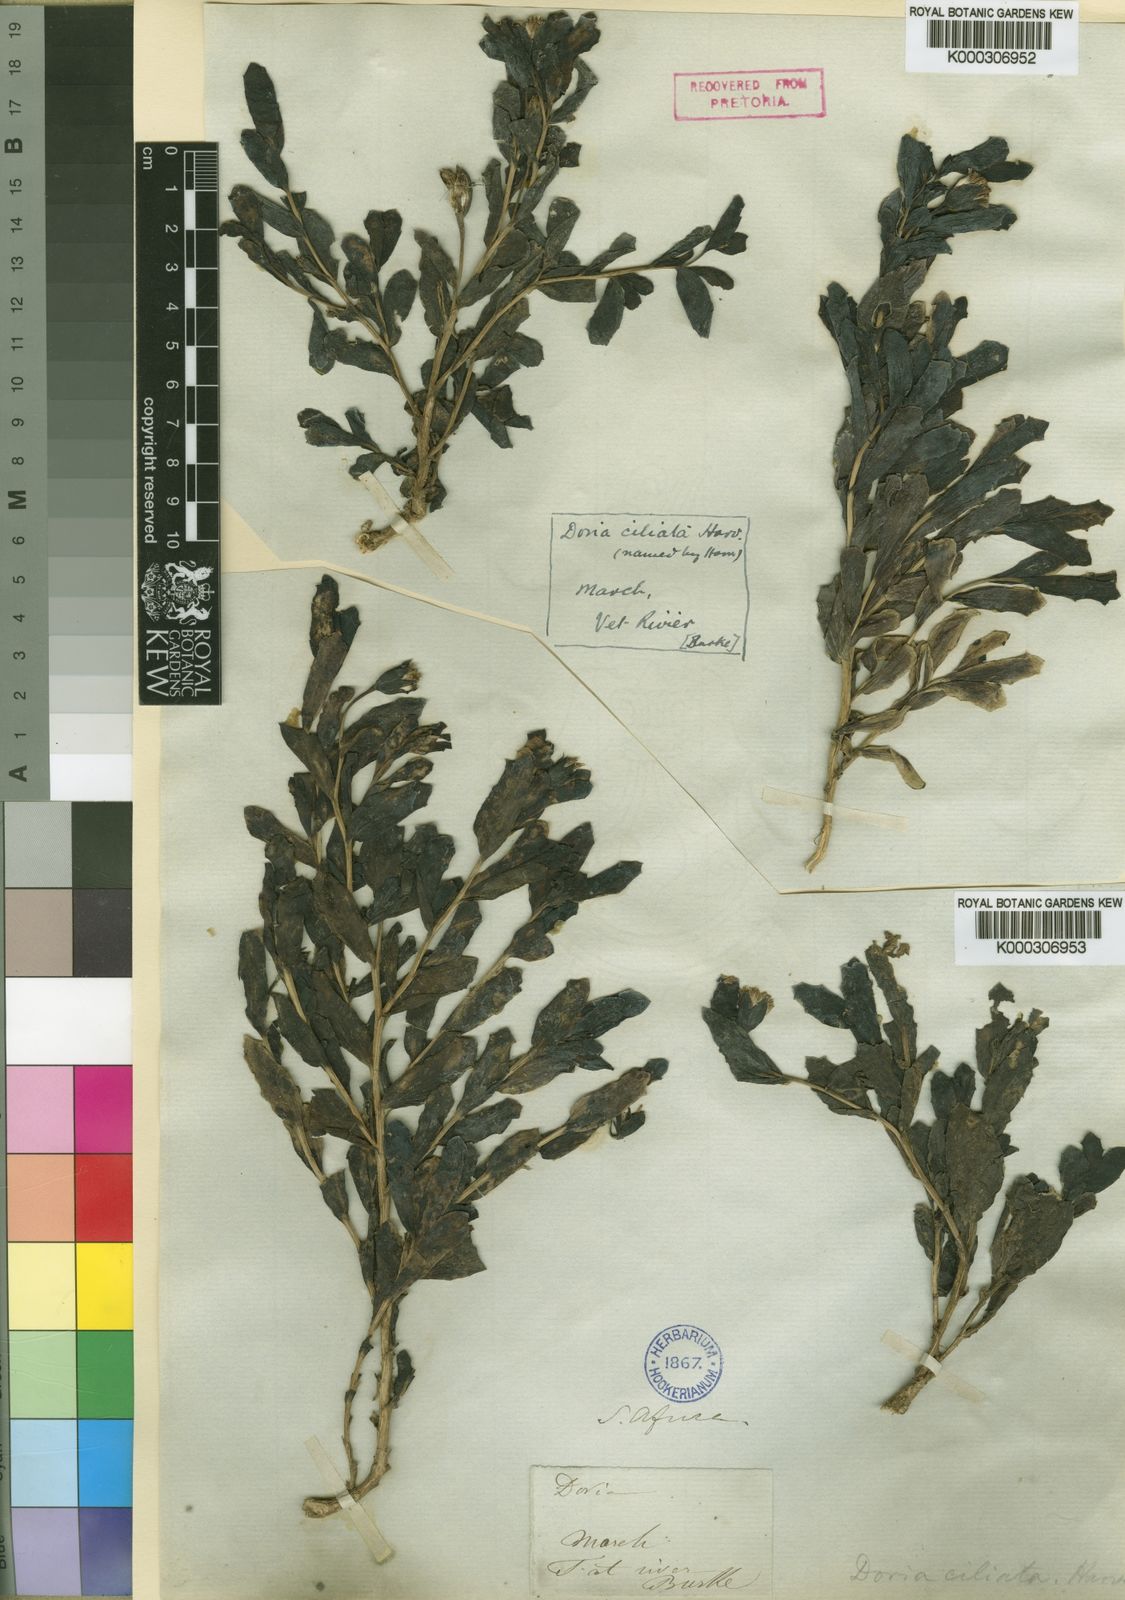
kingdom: Plantae
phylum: Tracheophyta
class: Magnoliopsida
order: Asterales
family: Asteraceae
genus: Othonna
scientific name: Othonna ciliata
